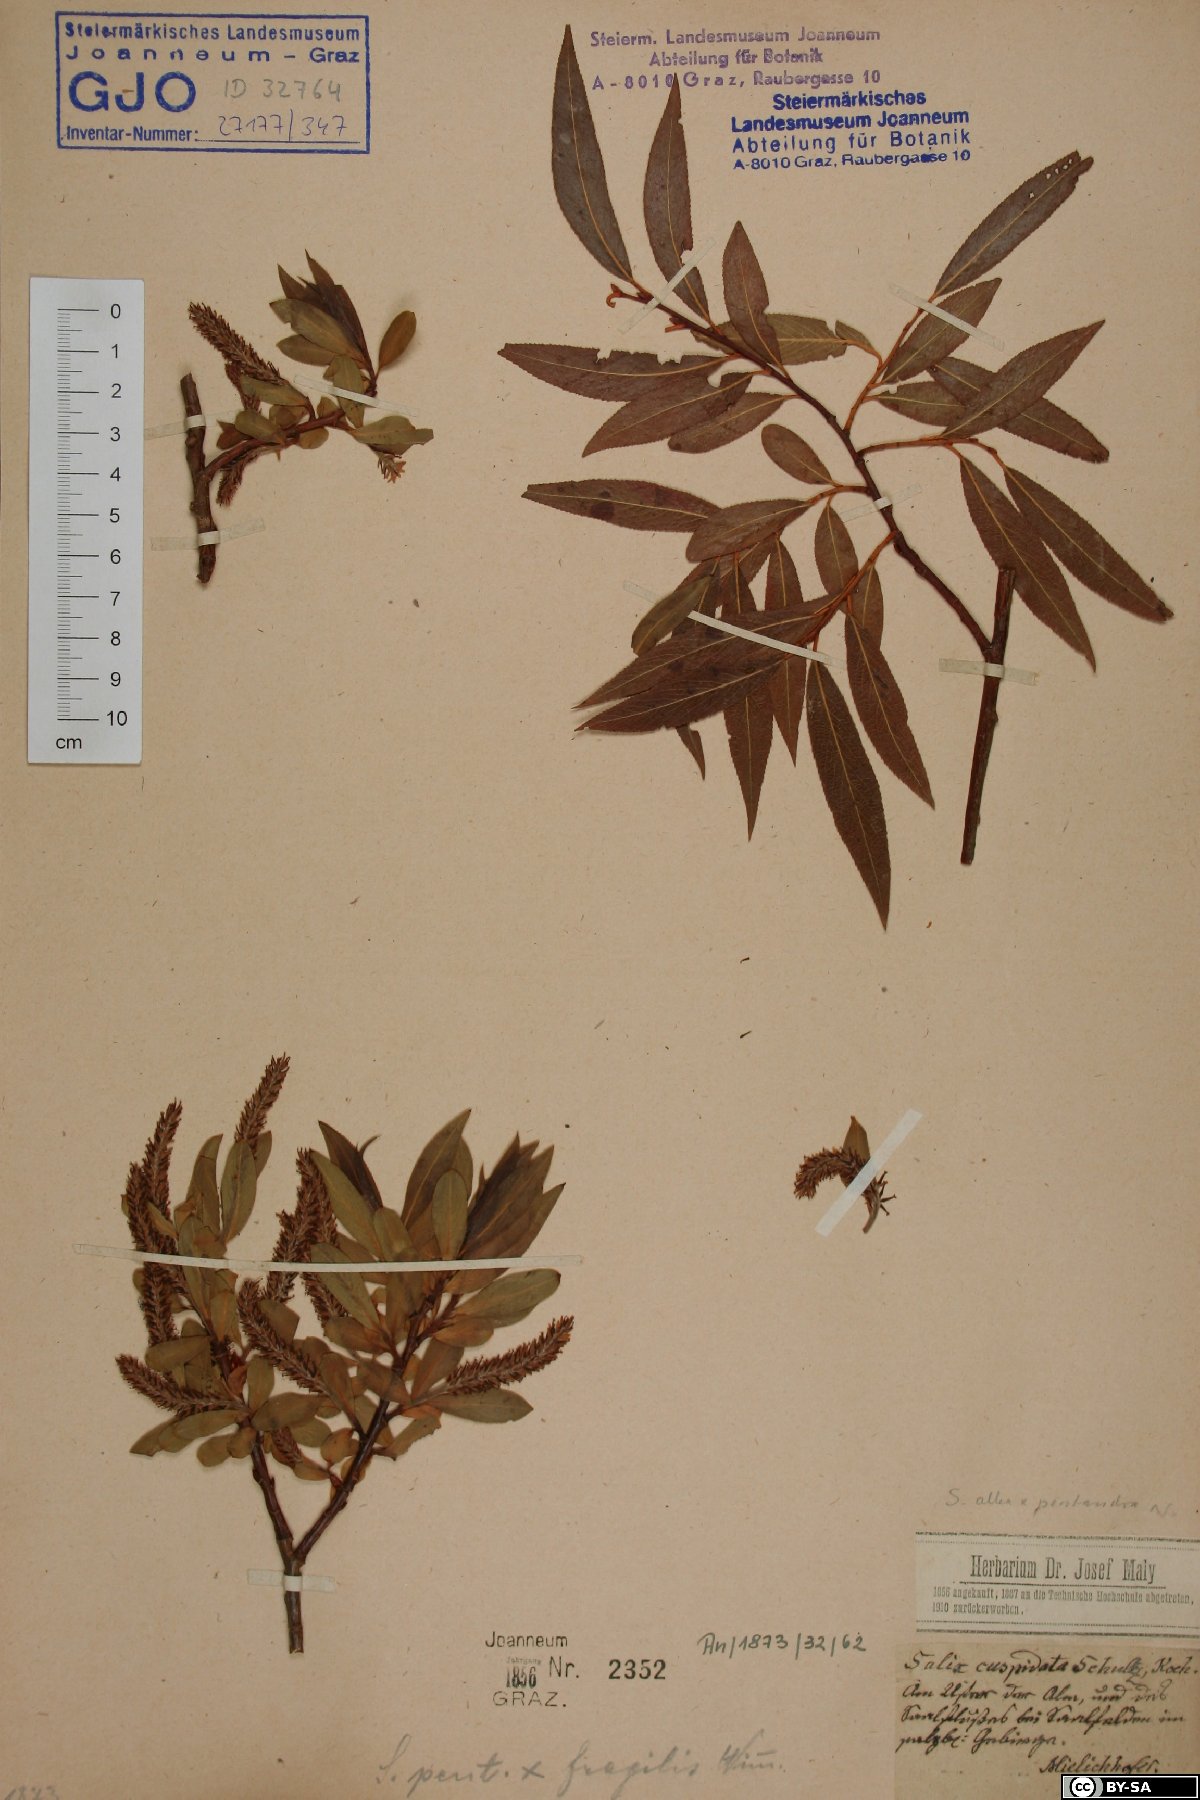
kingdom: Plantae
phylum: Tracheophyta
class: Magnoliopsida
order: Malpighiales
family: Salicaceae
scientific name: Salicaceae
